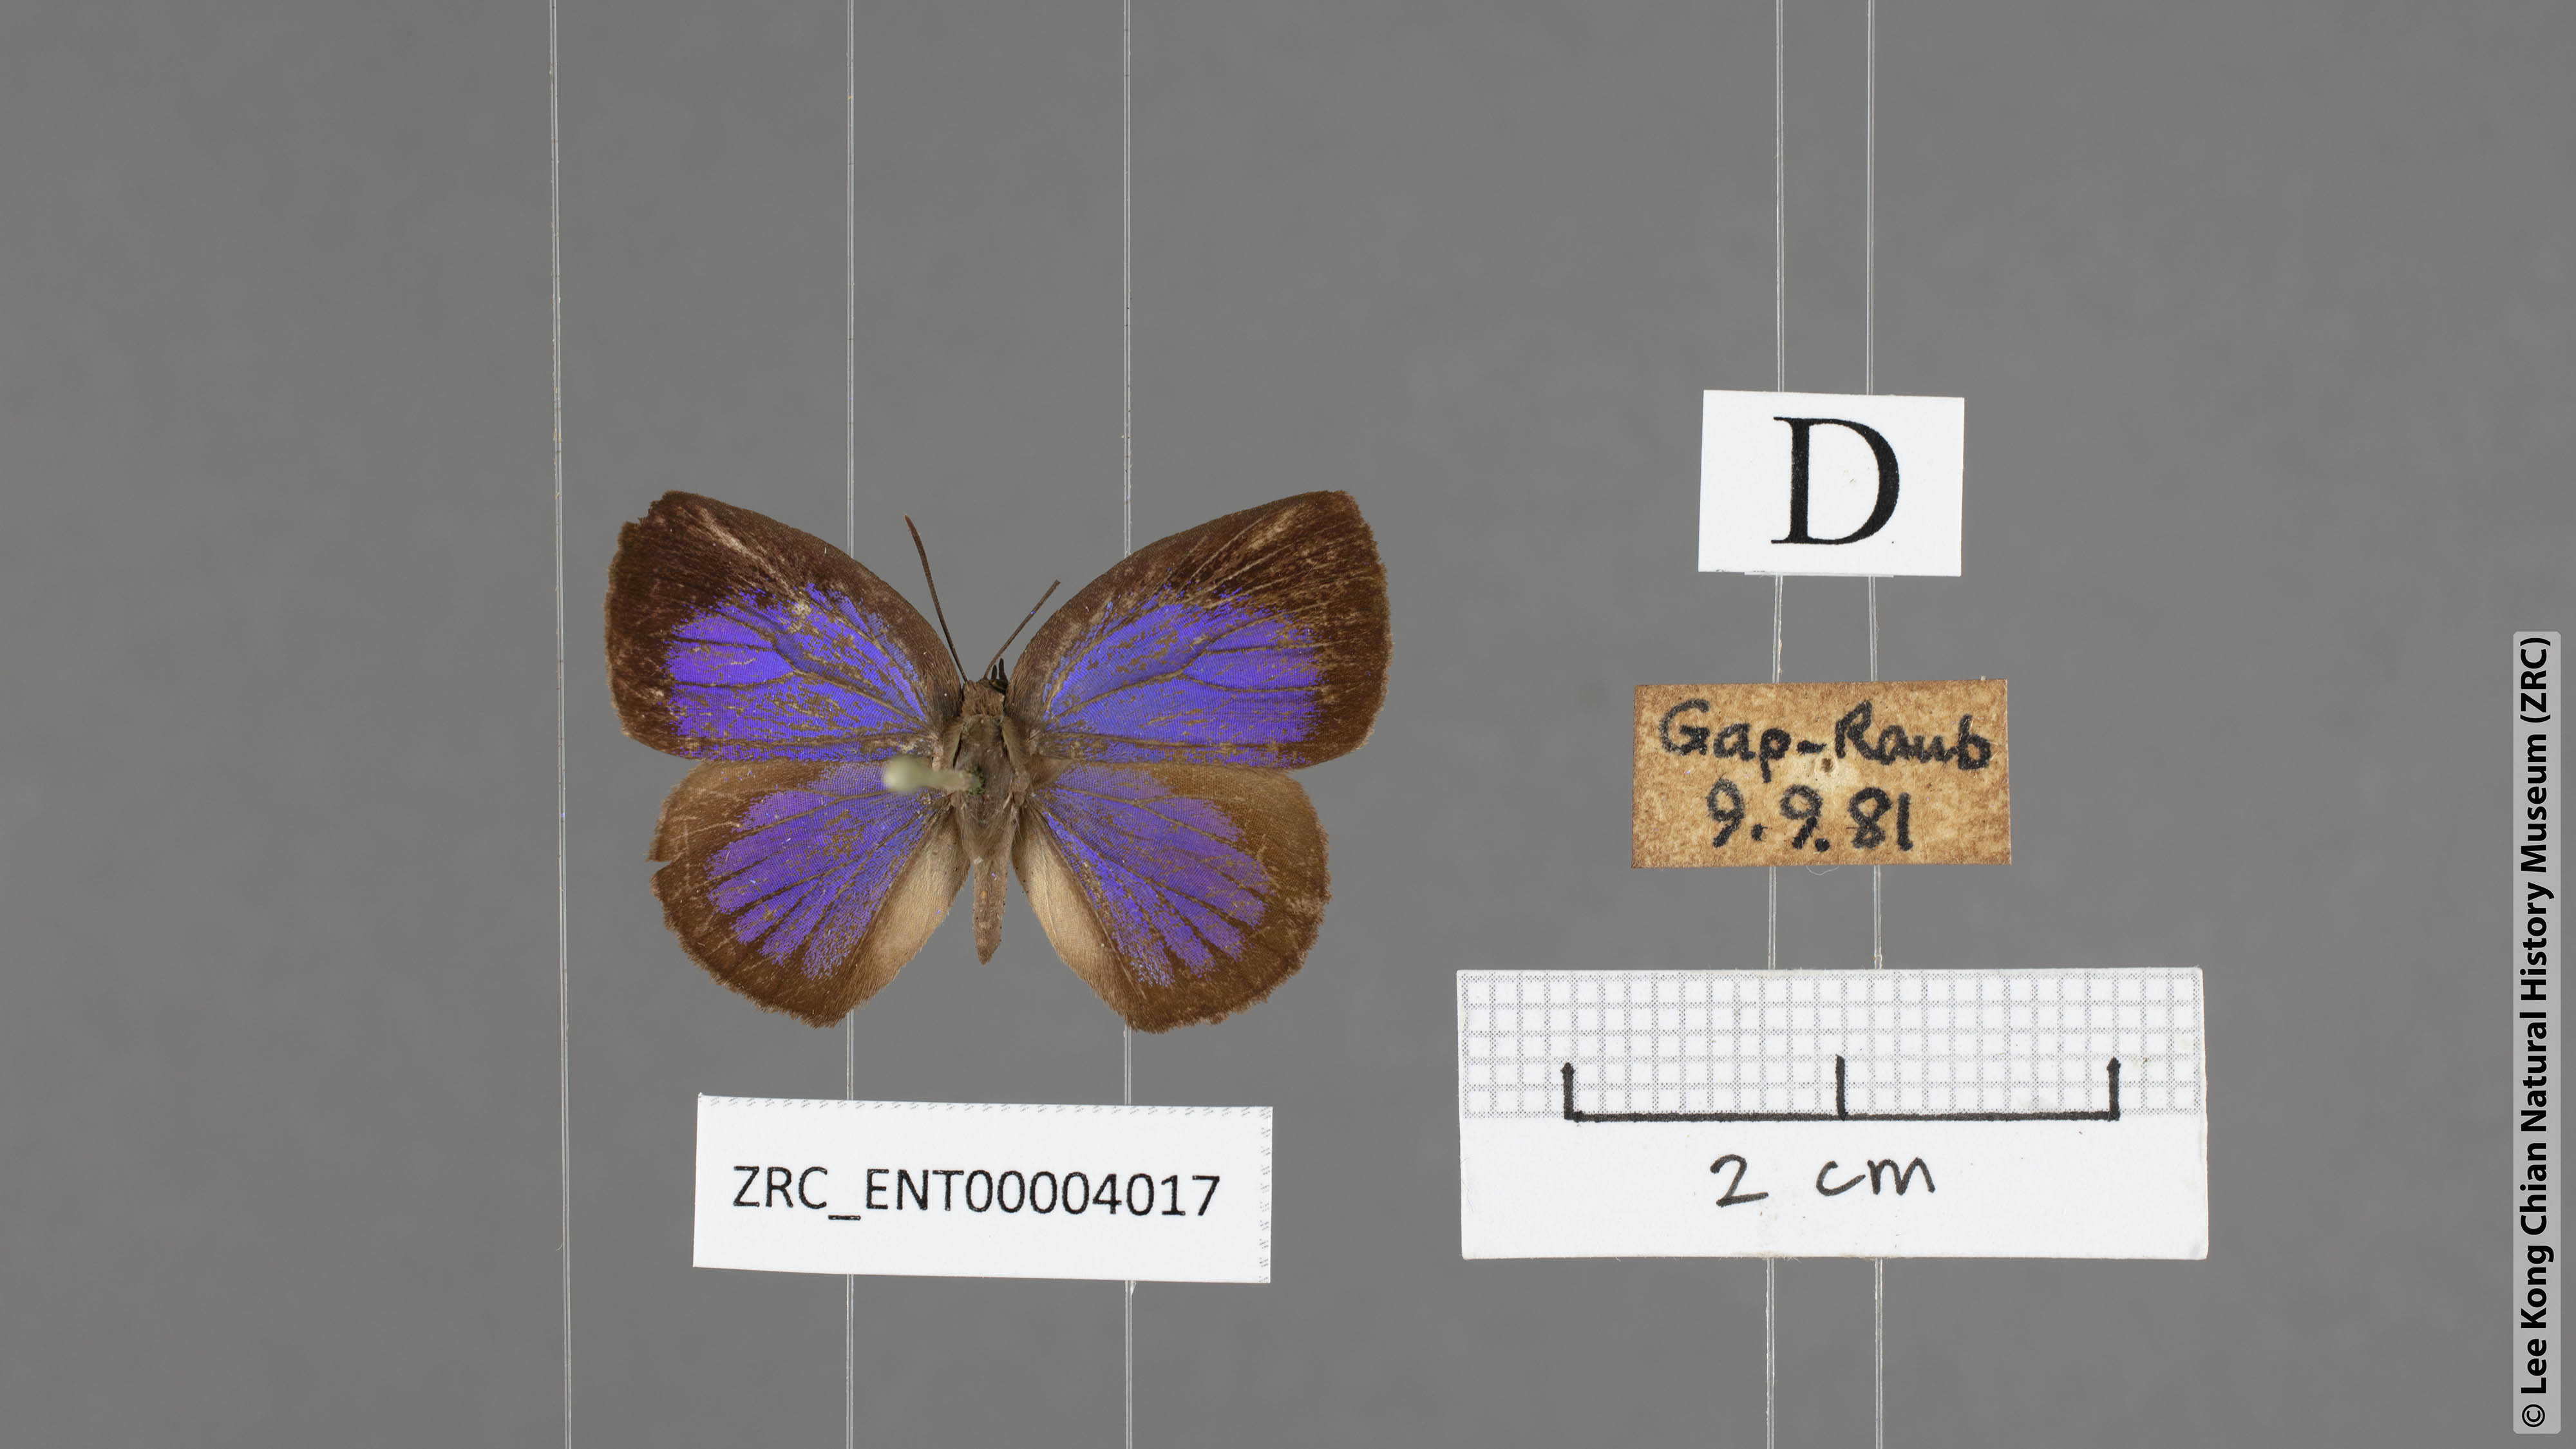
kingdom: Animalia
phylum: Arthropoda
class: Insecta
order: Lepidoptera
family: Lycaenidae
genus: Arhopala
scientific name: Arhopala perimuta
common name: Yellowdisc oakblue
